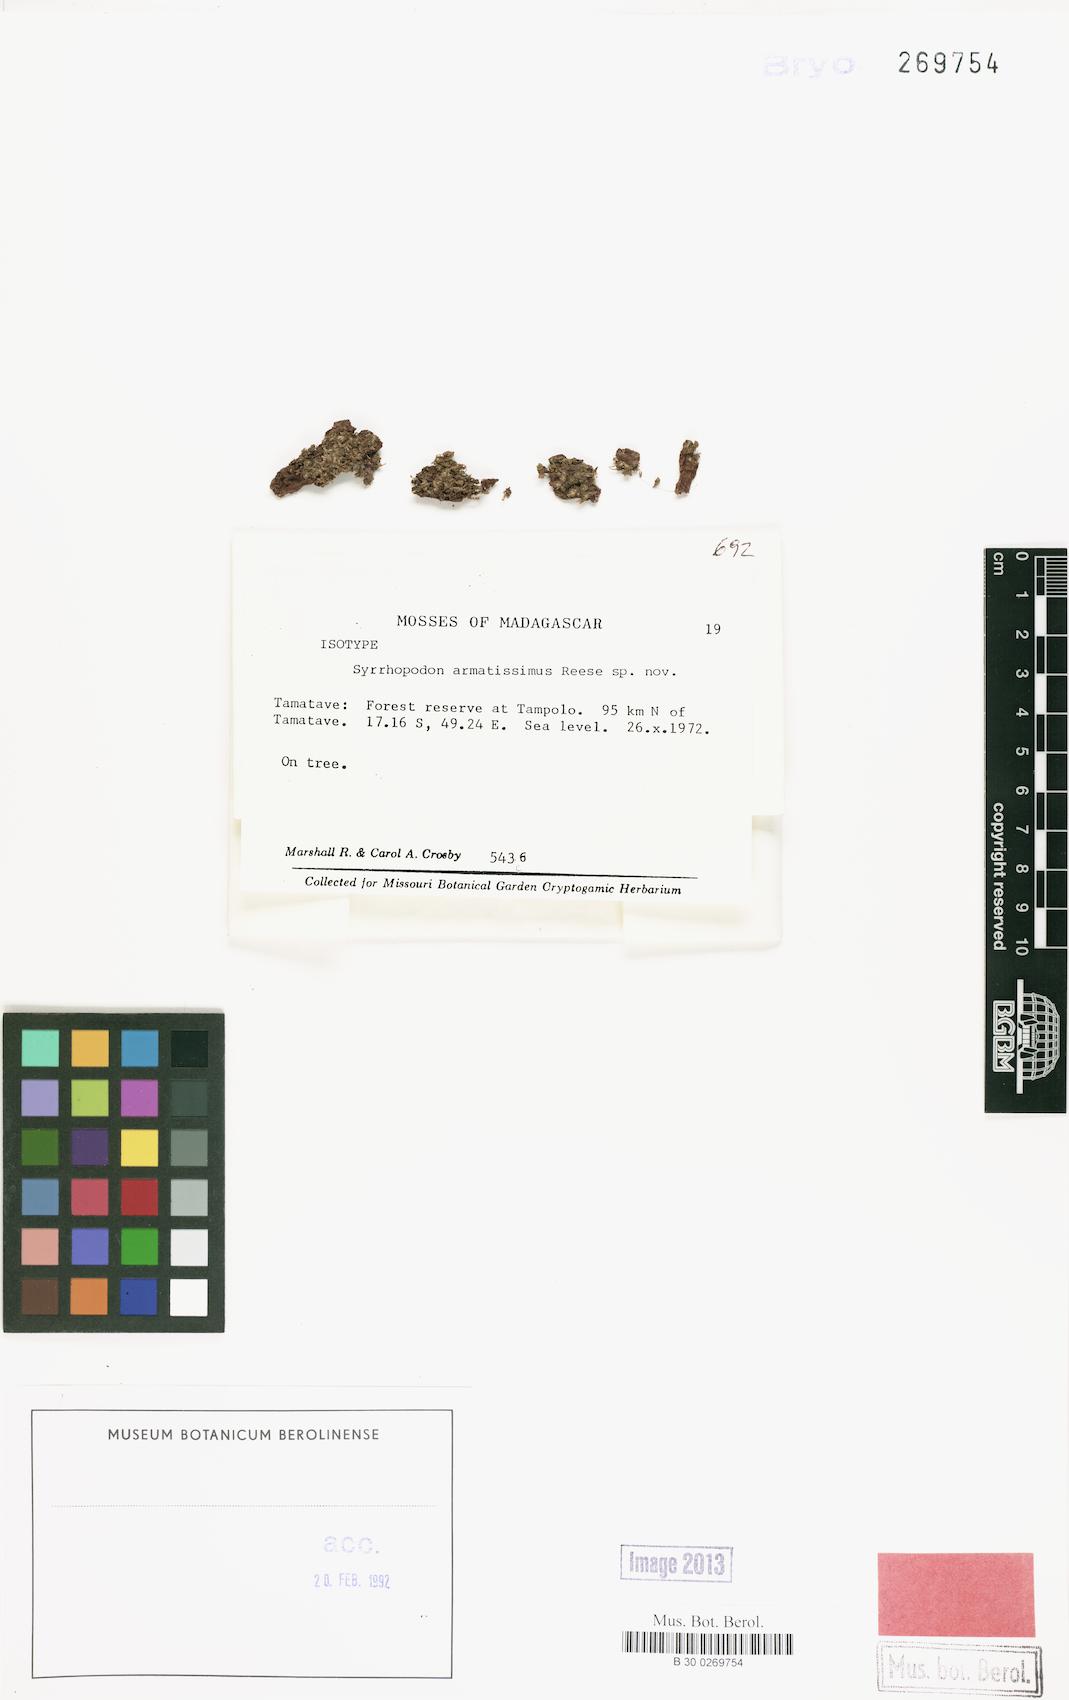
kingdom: Plantae
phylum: Bryophyta
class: Bryopsida
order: Dicranales
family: Calymperaceae
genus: Syrrhopodon
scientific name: Syrrhopodon armatissimus
